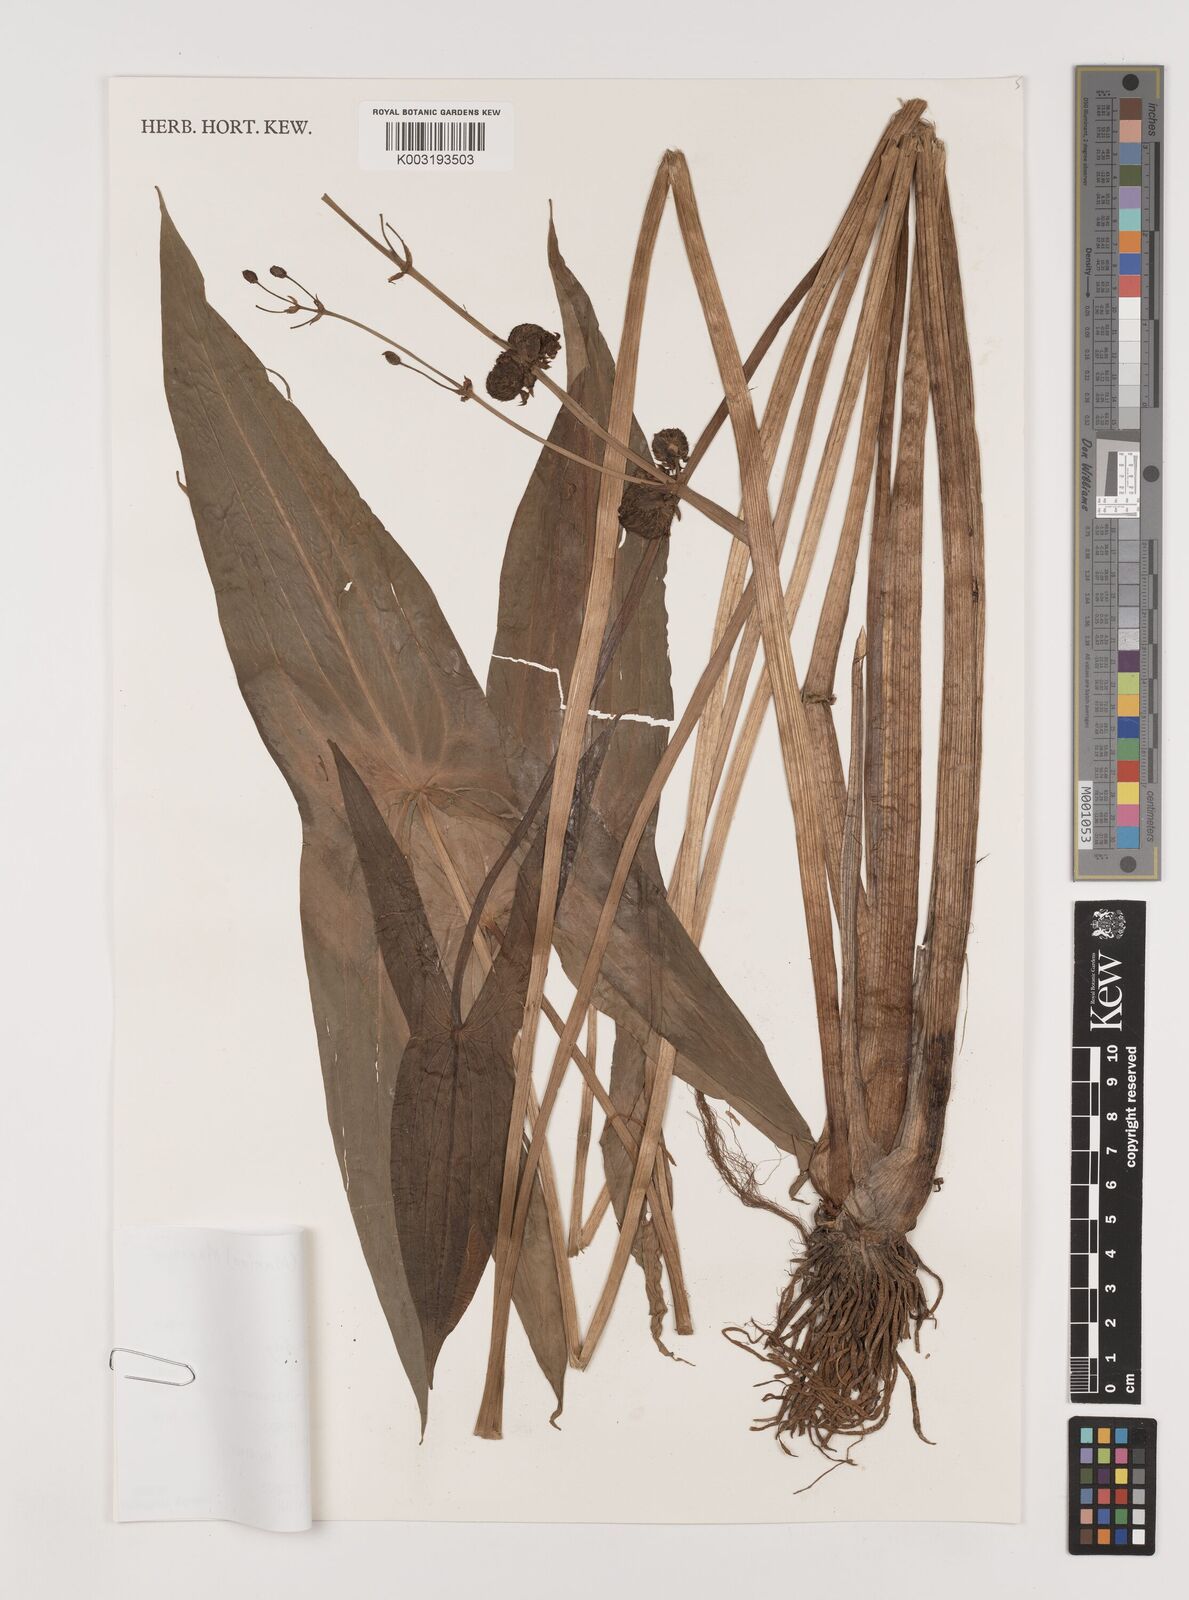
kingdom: Plantae
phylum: Tracheophyta
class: Liliopsida
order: Alismatales
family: Alismataceae
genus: Sagittaria
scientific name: Sagittaria aginashi
